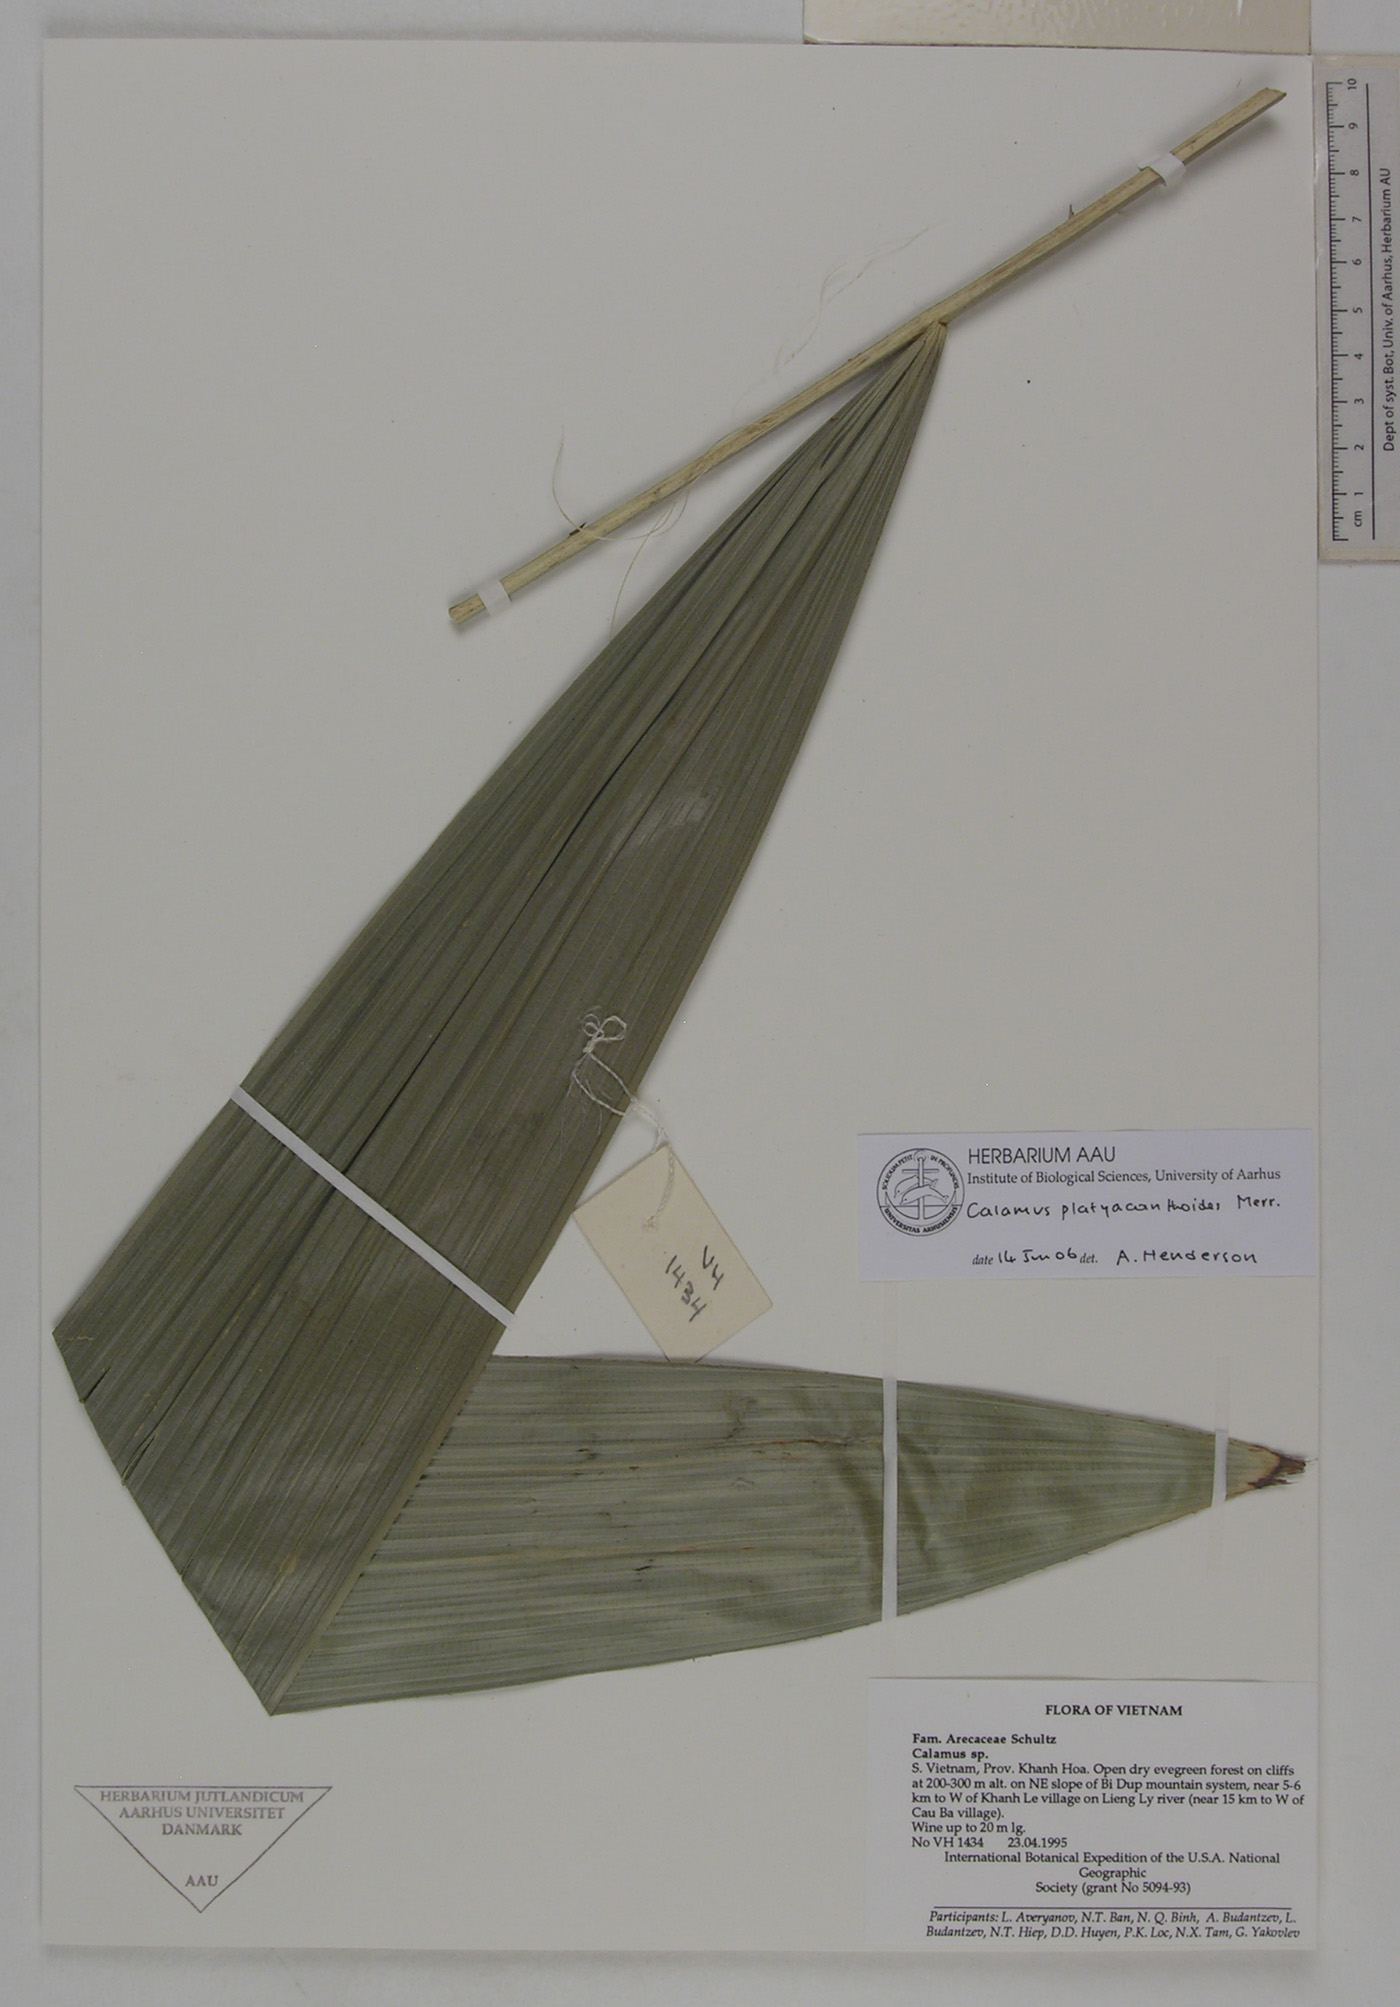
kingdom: Plantae
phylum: Tracheophyta
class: Liliopsida
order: Arecales
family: Arecaceae
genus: Calamus
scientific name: Calamus inermis
